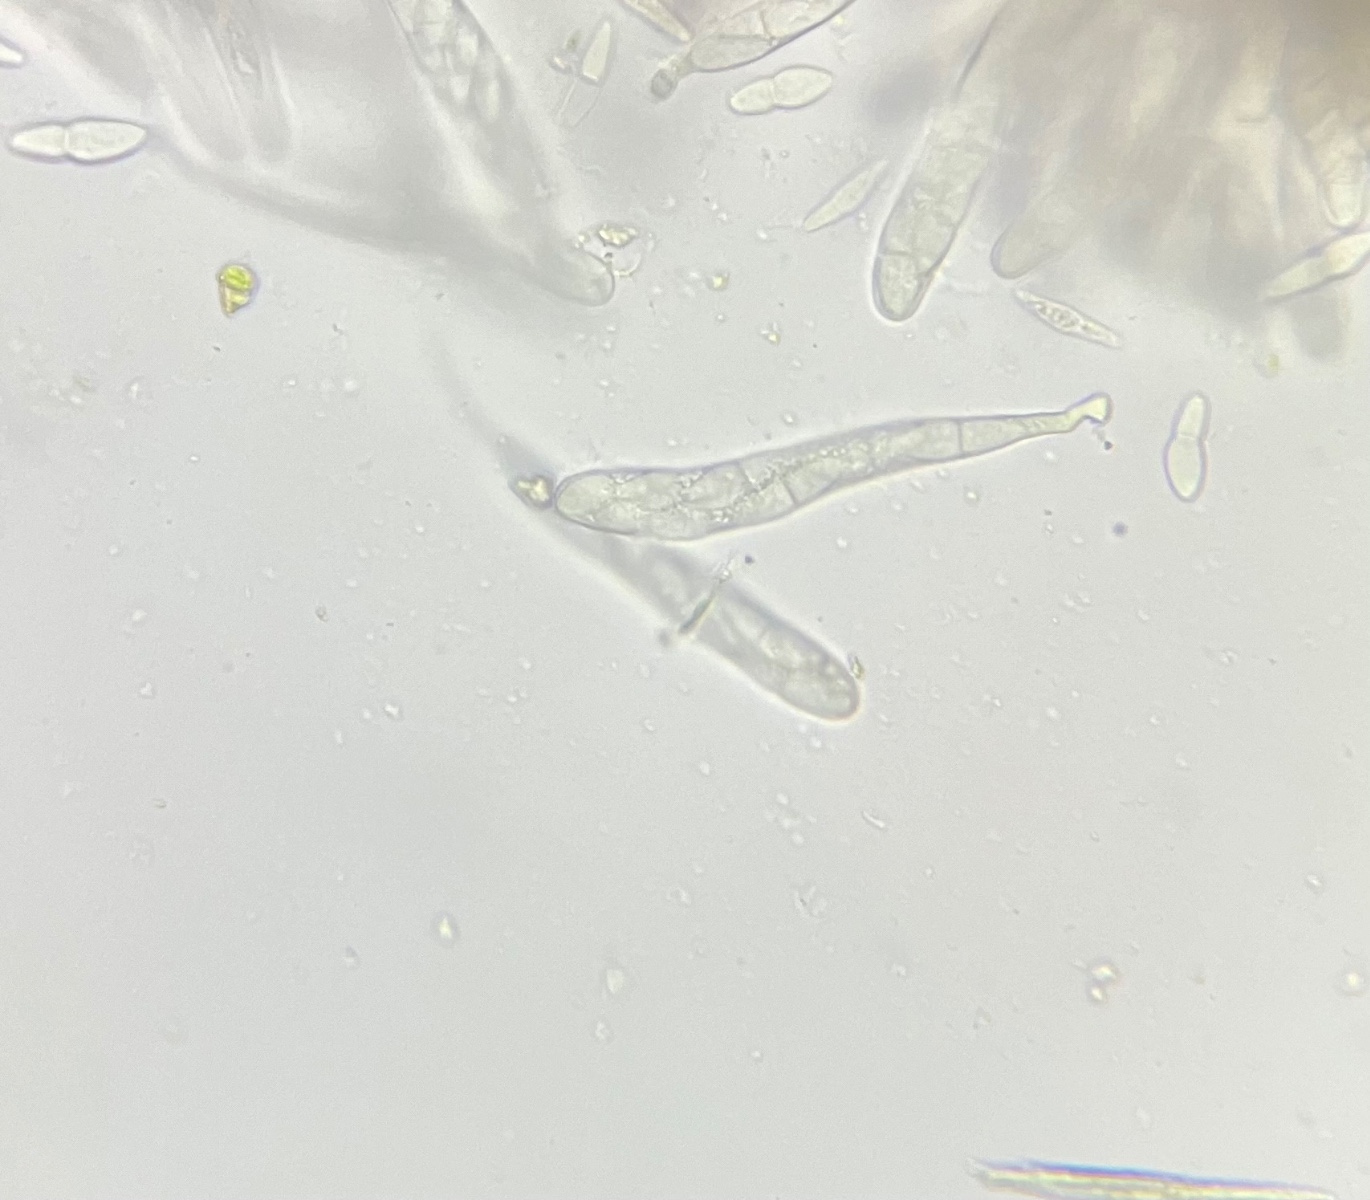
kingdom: Fungi
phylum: Ascomycota
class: Dothideomycetes
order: Botryosphaeriales
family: Botryosphaeriaceae
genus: Dothiora
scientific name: Dothiora ribesia
